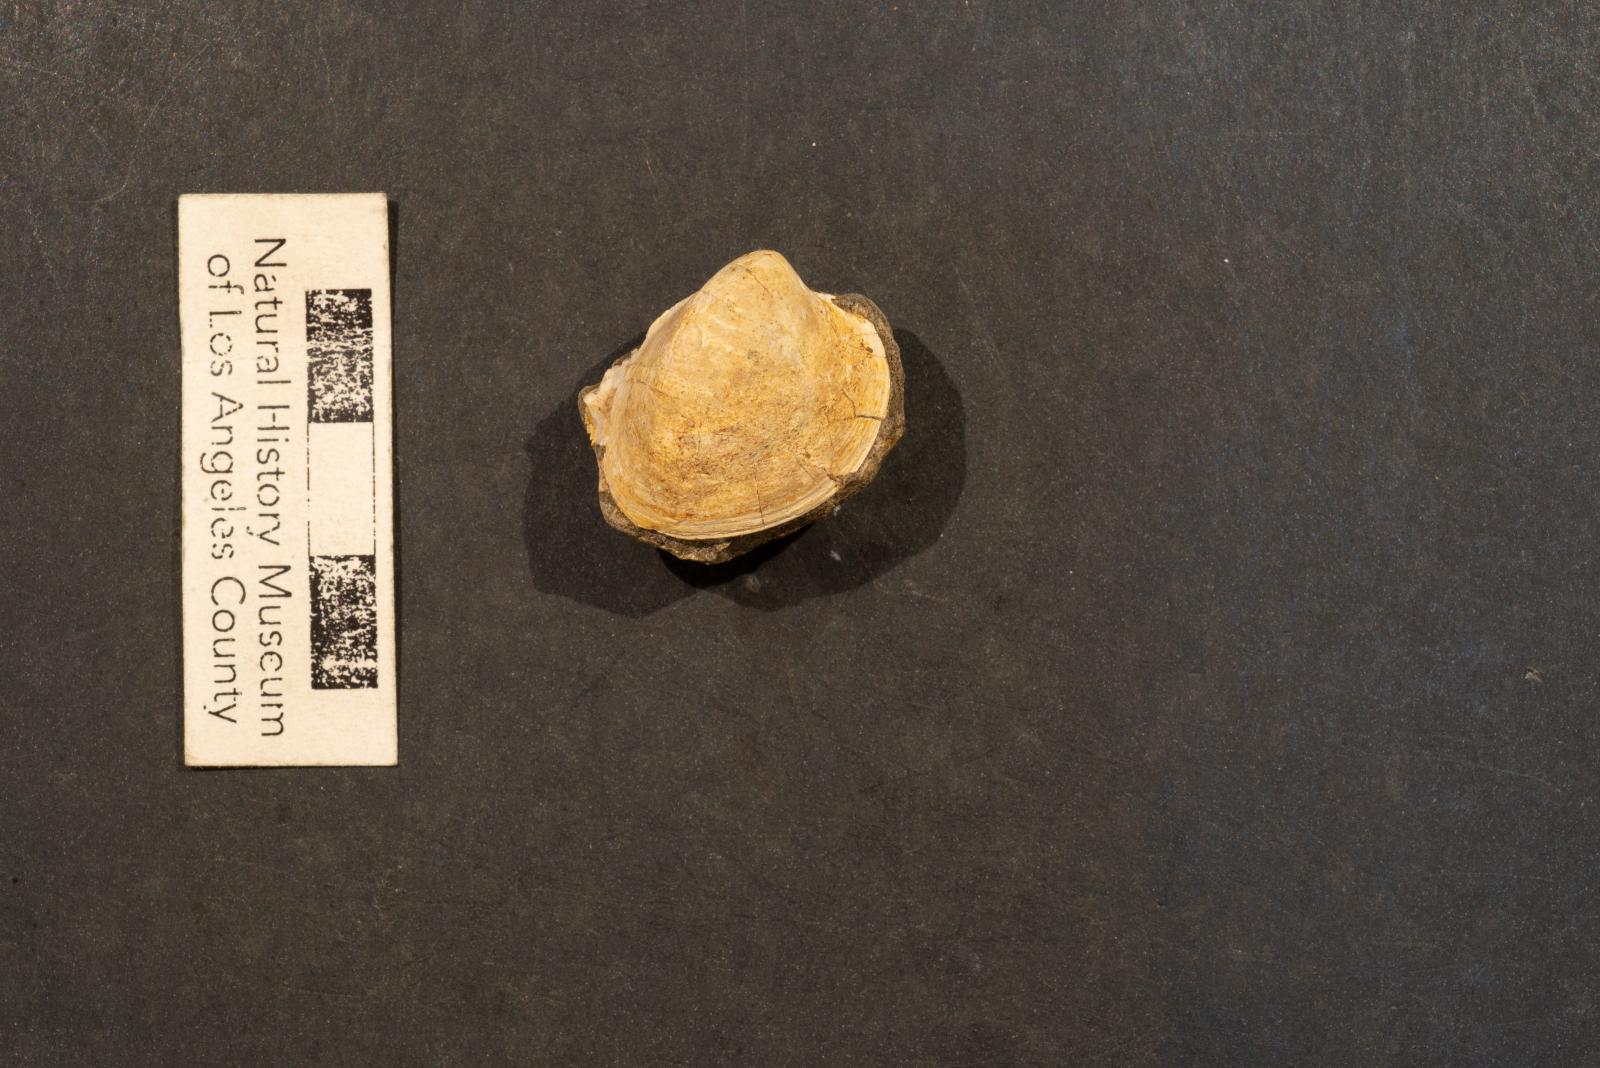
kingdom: Animalia
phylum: Mollusca
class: Bivalvia
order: Cardiida
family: Cardiidae
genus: Protocardia
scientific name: Protocardia Cardium placerensis
